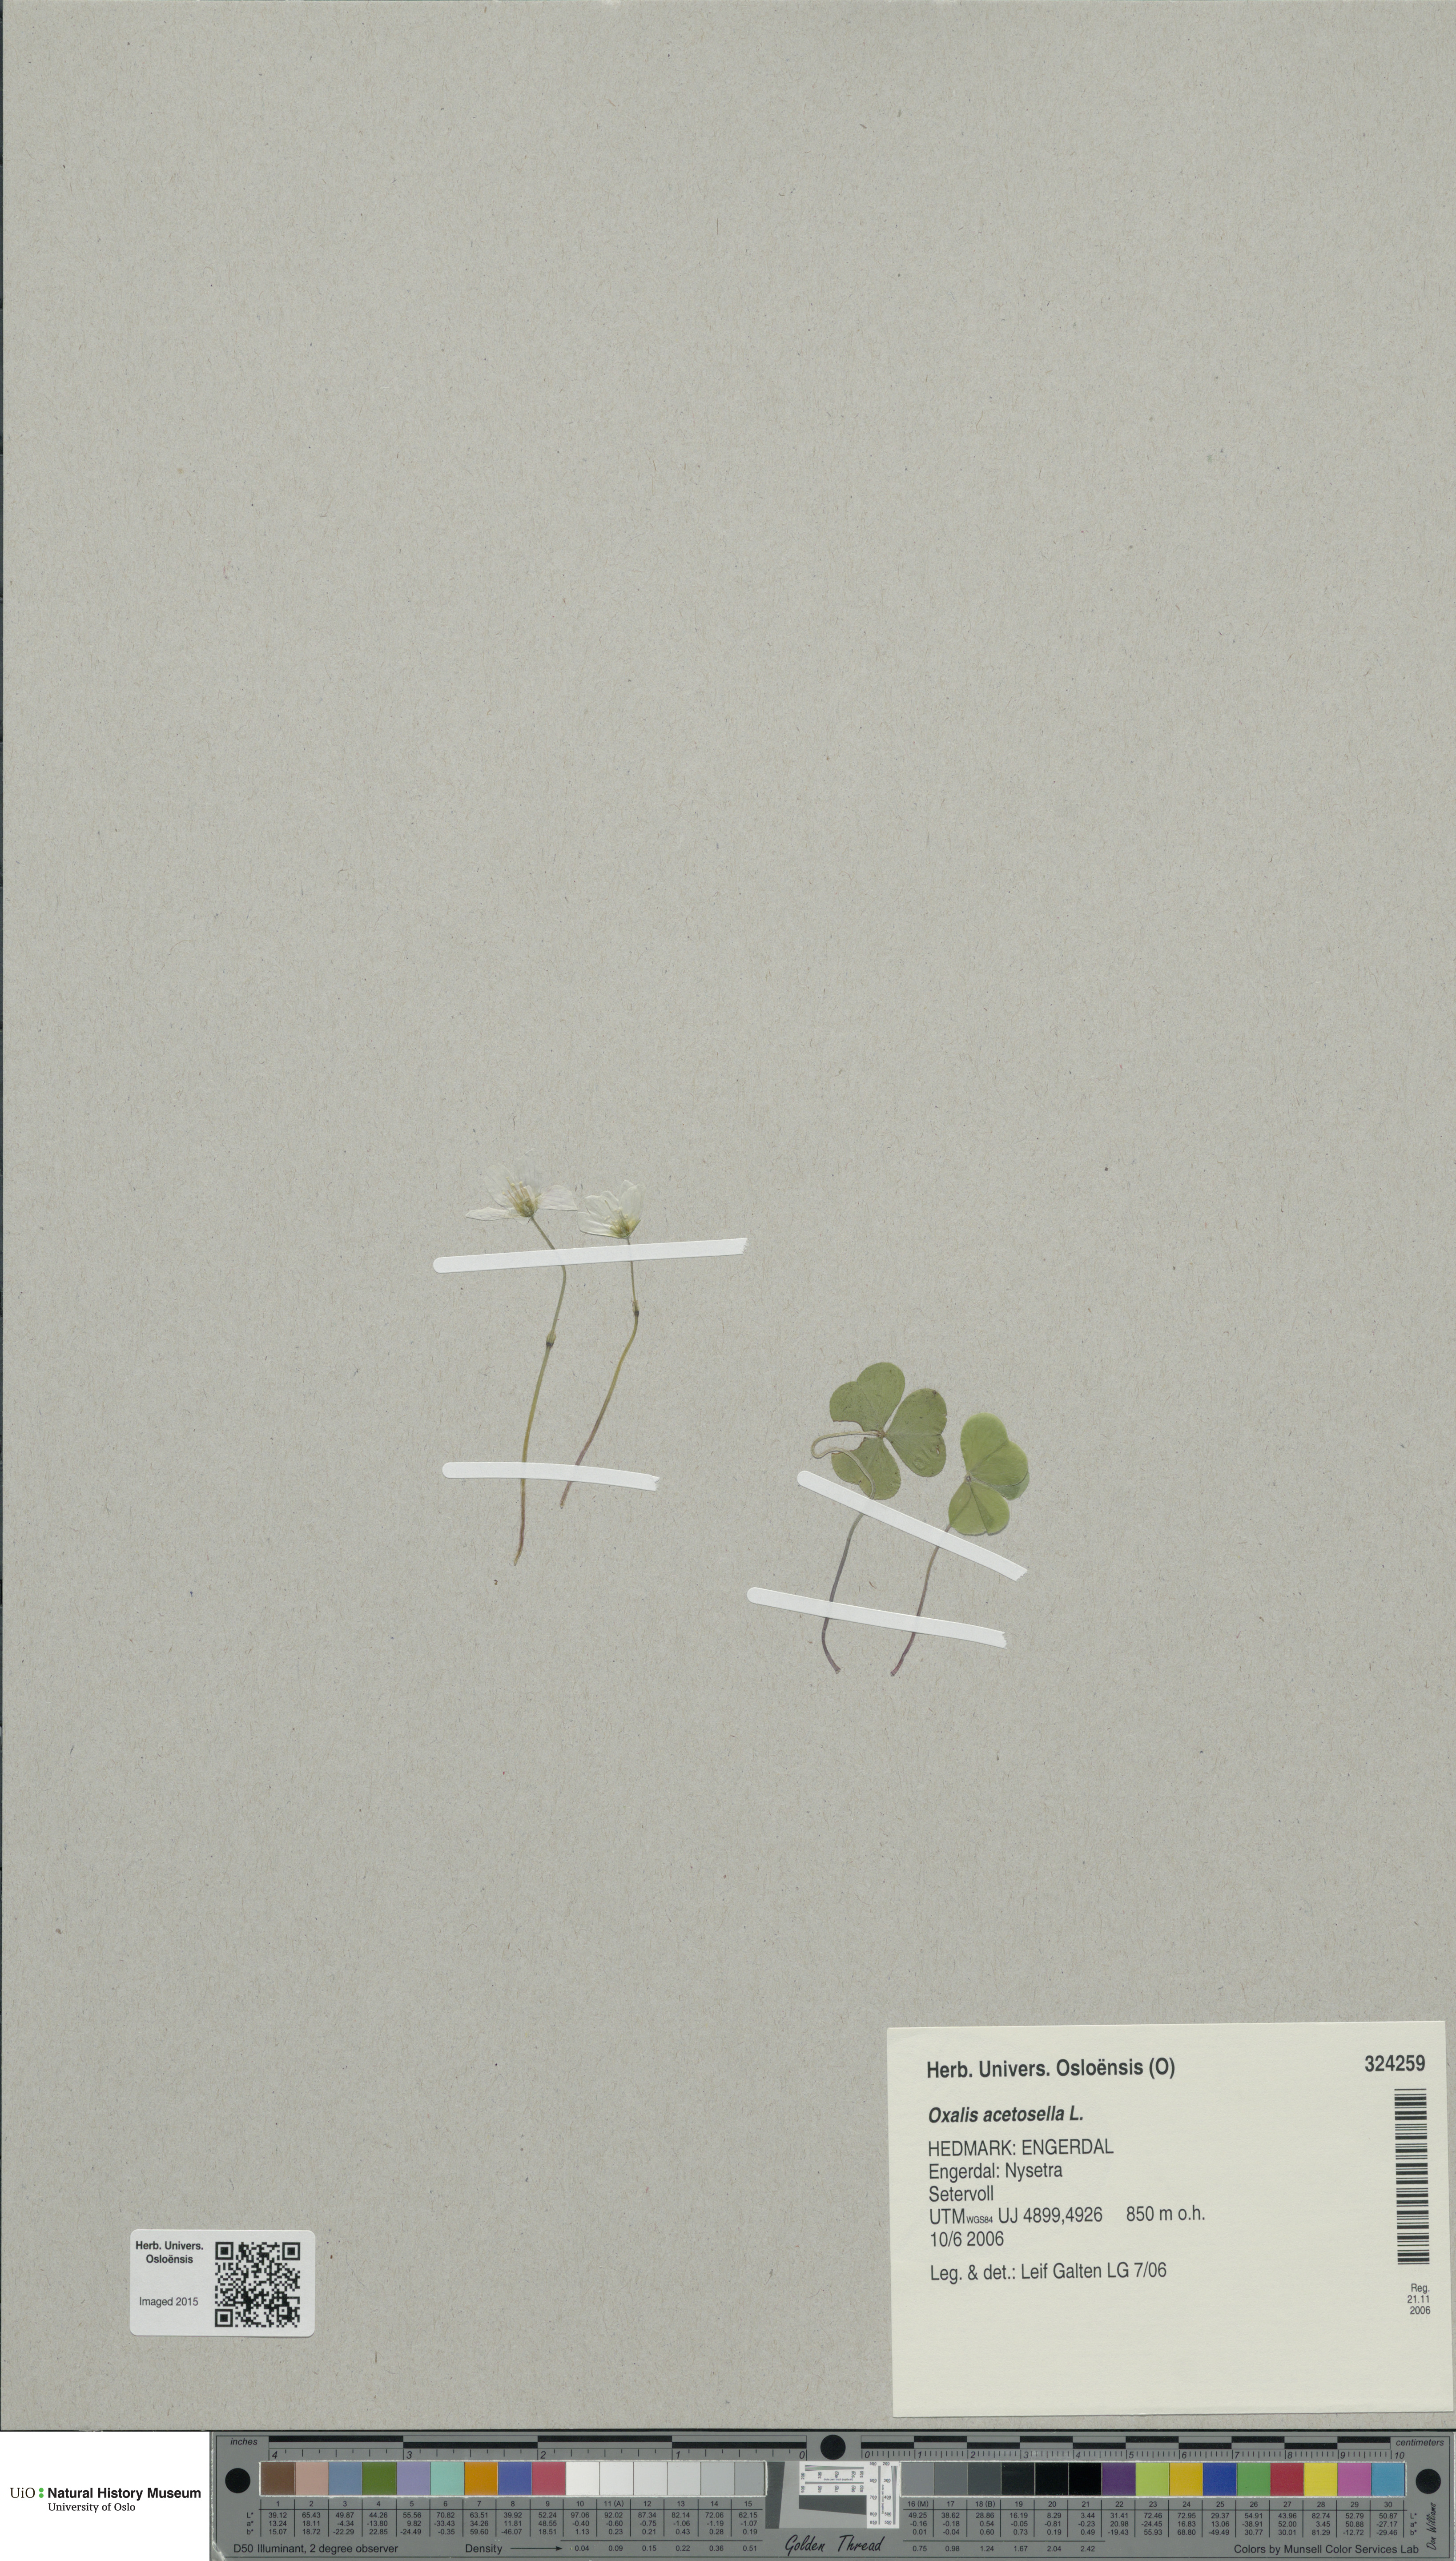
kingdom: Plantae
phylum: Tracheophyta
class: Magnoliopsida
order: Oxalidales
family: Oxalidaceae
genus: Oxalis
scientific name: Oxalis acetosella
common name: Wood-sorrel
